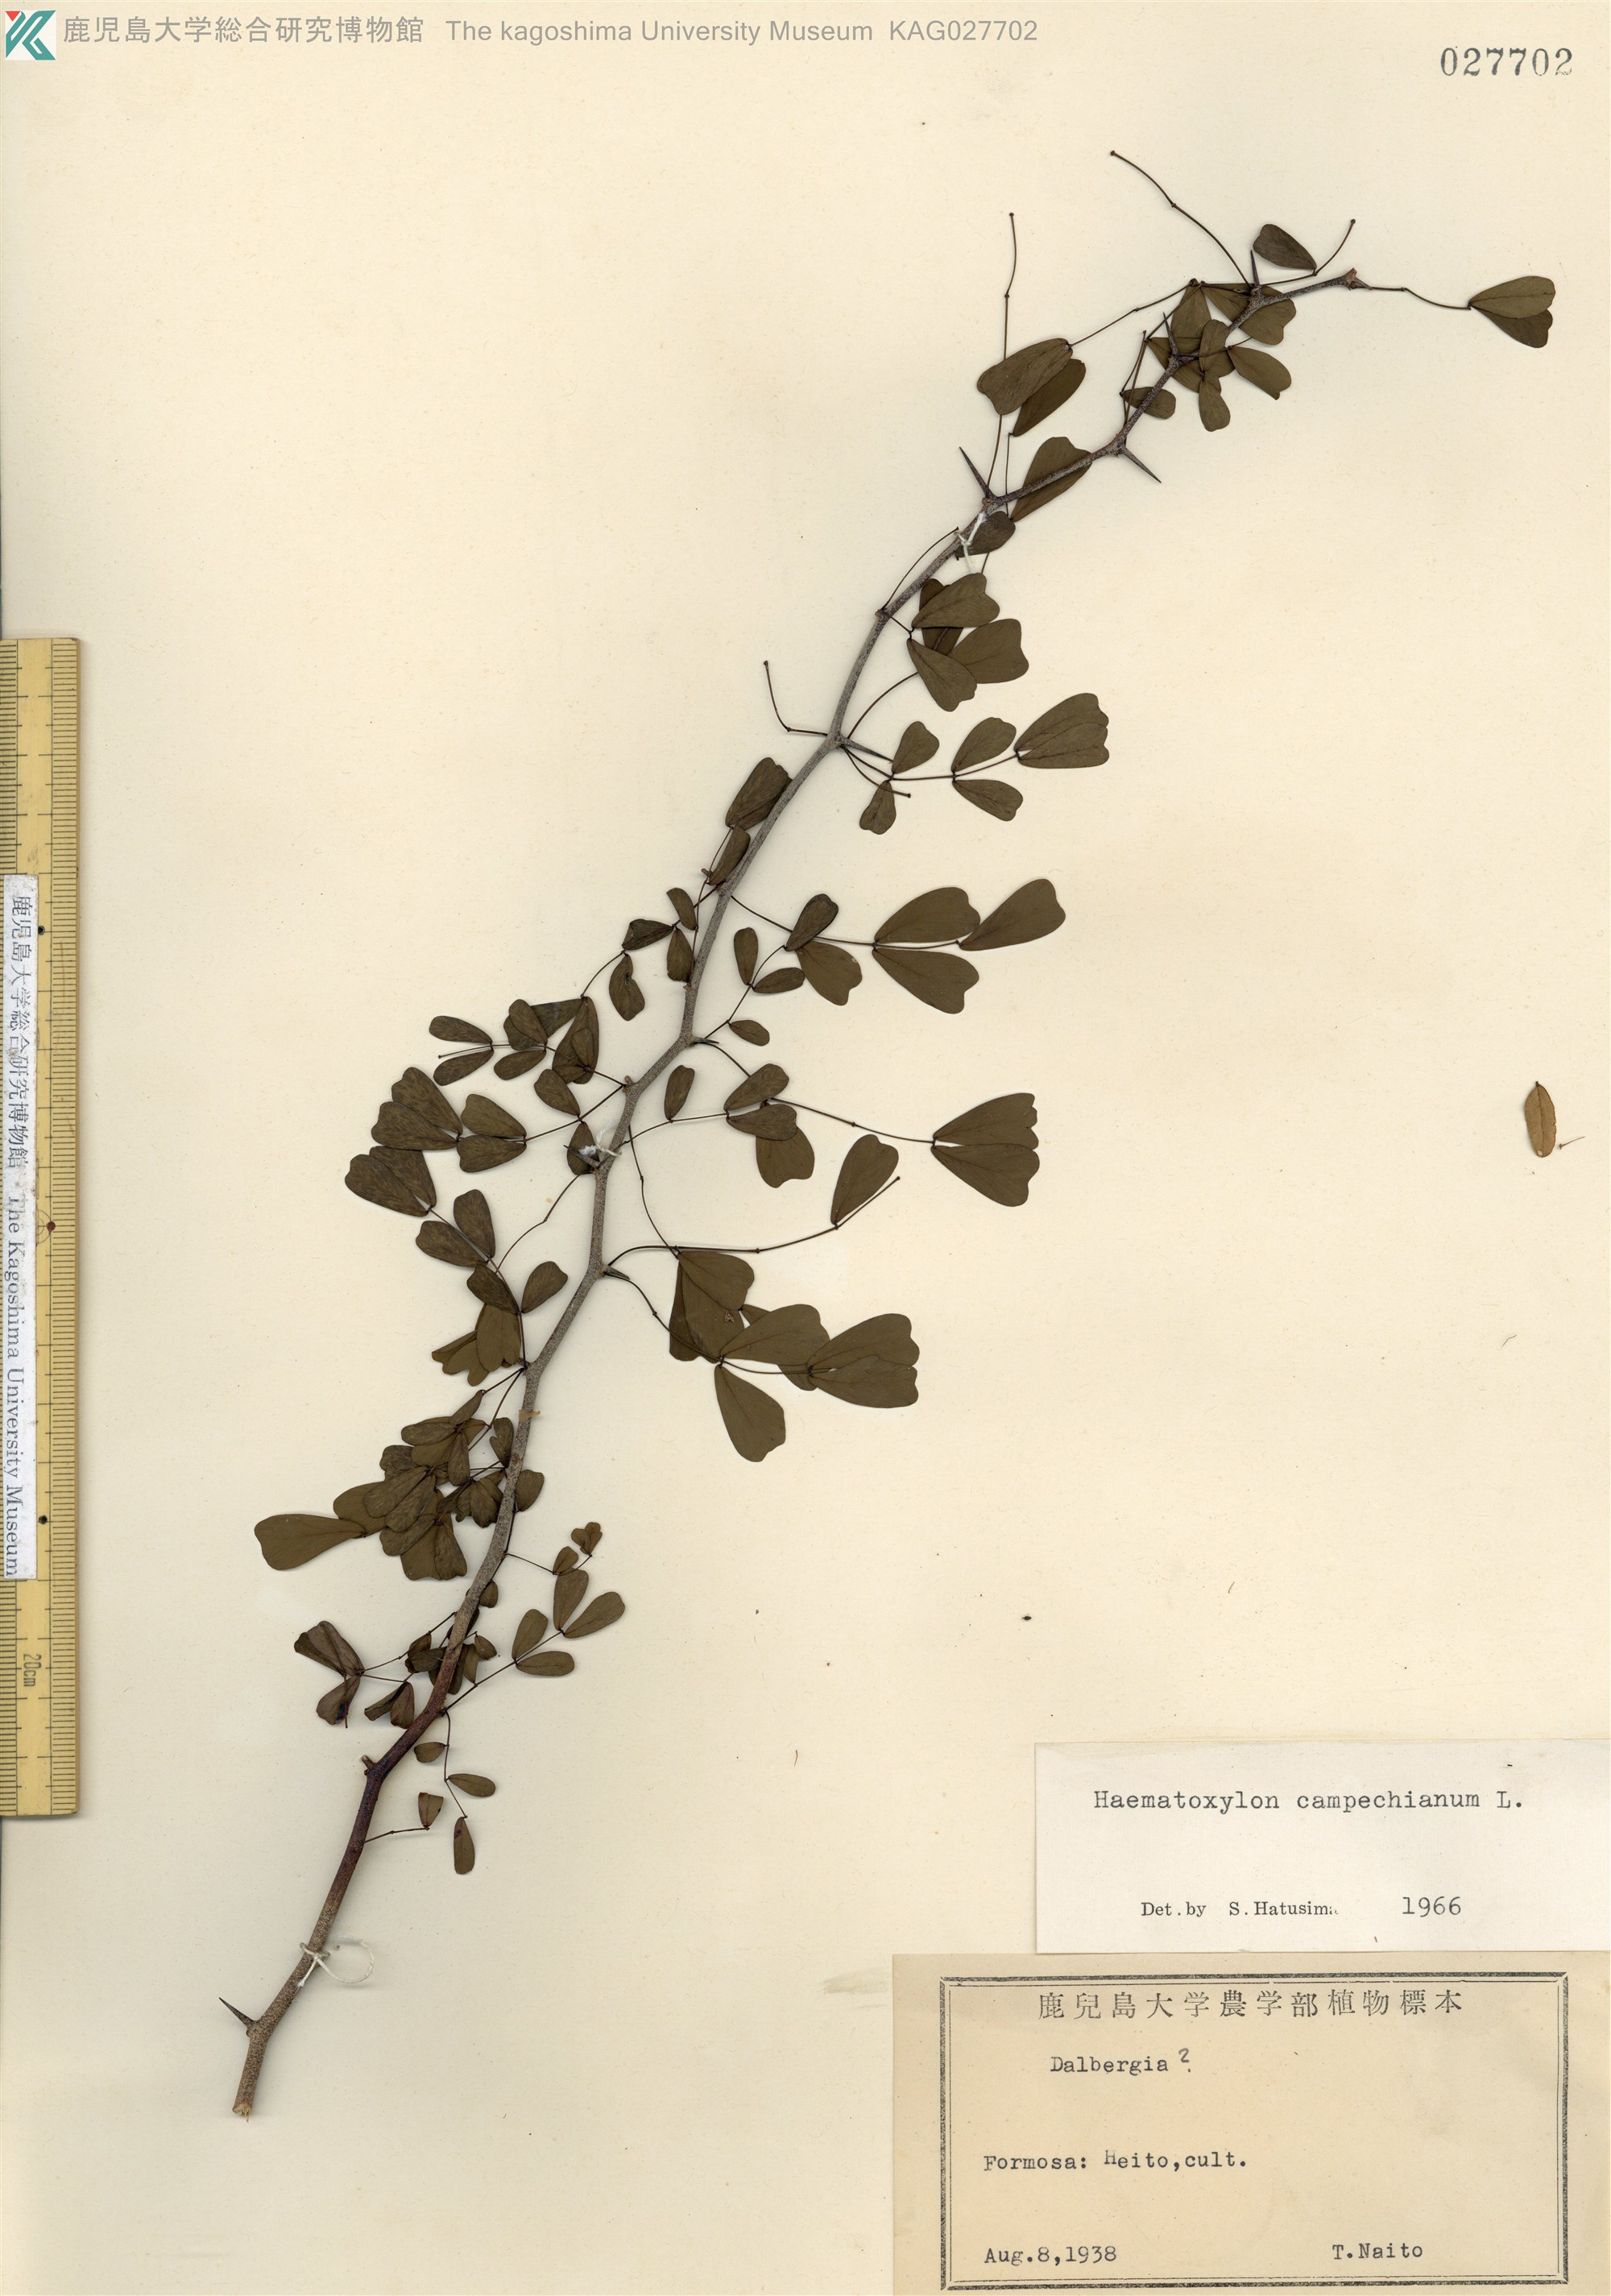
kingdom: Plantae
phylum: Tracheophyta
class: Magnoliopsida
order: Fabales
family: Fabaceae
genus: Haematoxylum
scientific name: Haematoxylum campechianum
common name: Logwood
